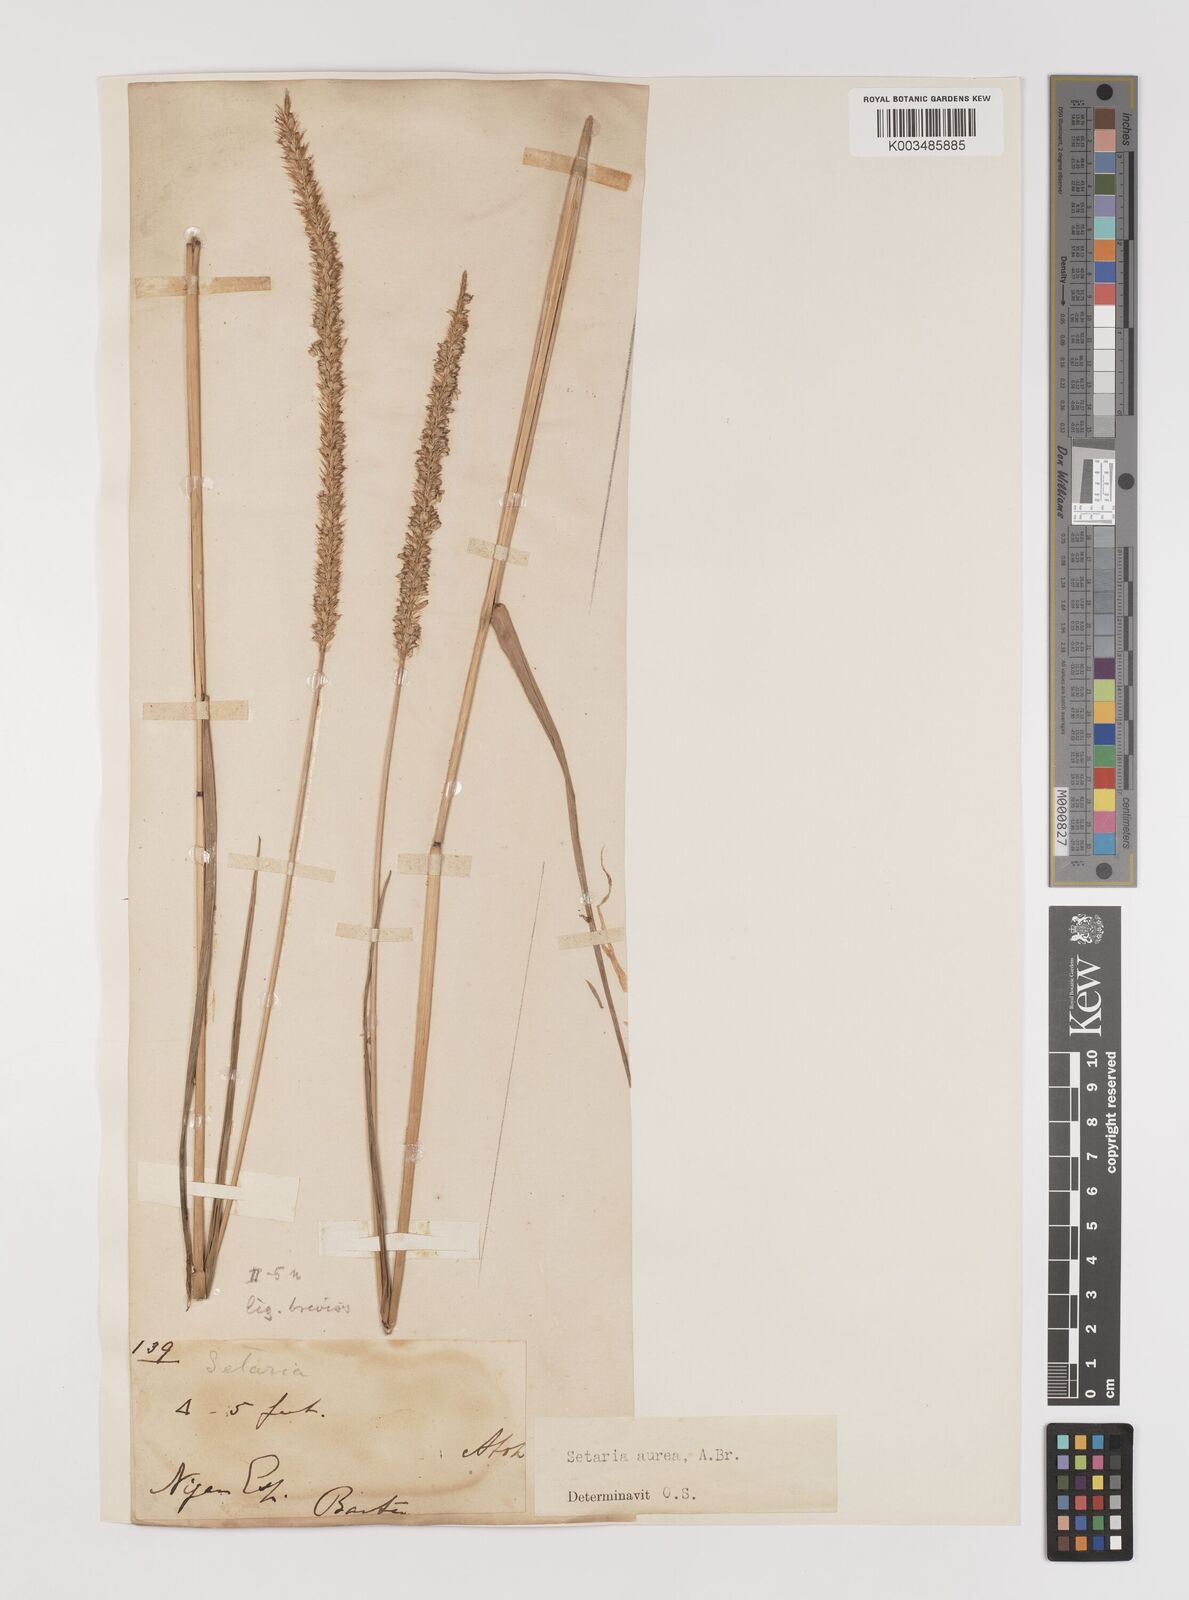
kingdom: Plantae
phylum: Tracheophyta
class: Liliopsida
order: Poales
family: Poaceae
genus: Setaria
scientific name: Setaria sphacelata
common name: African bristlegrass
